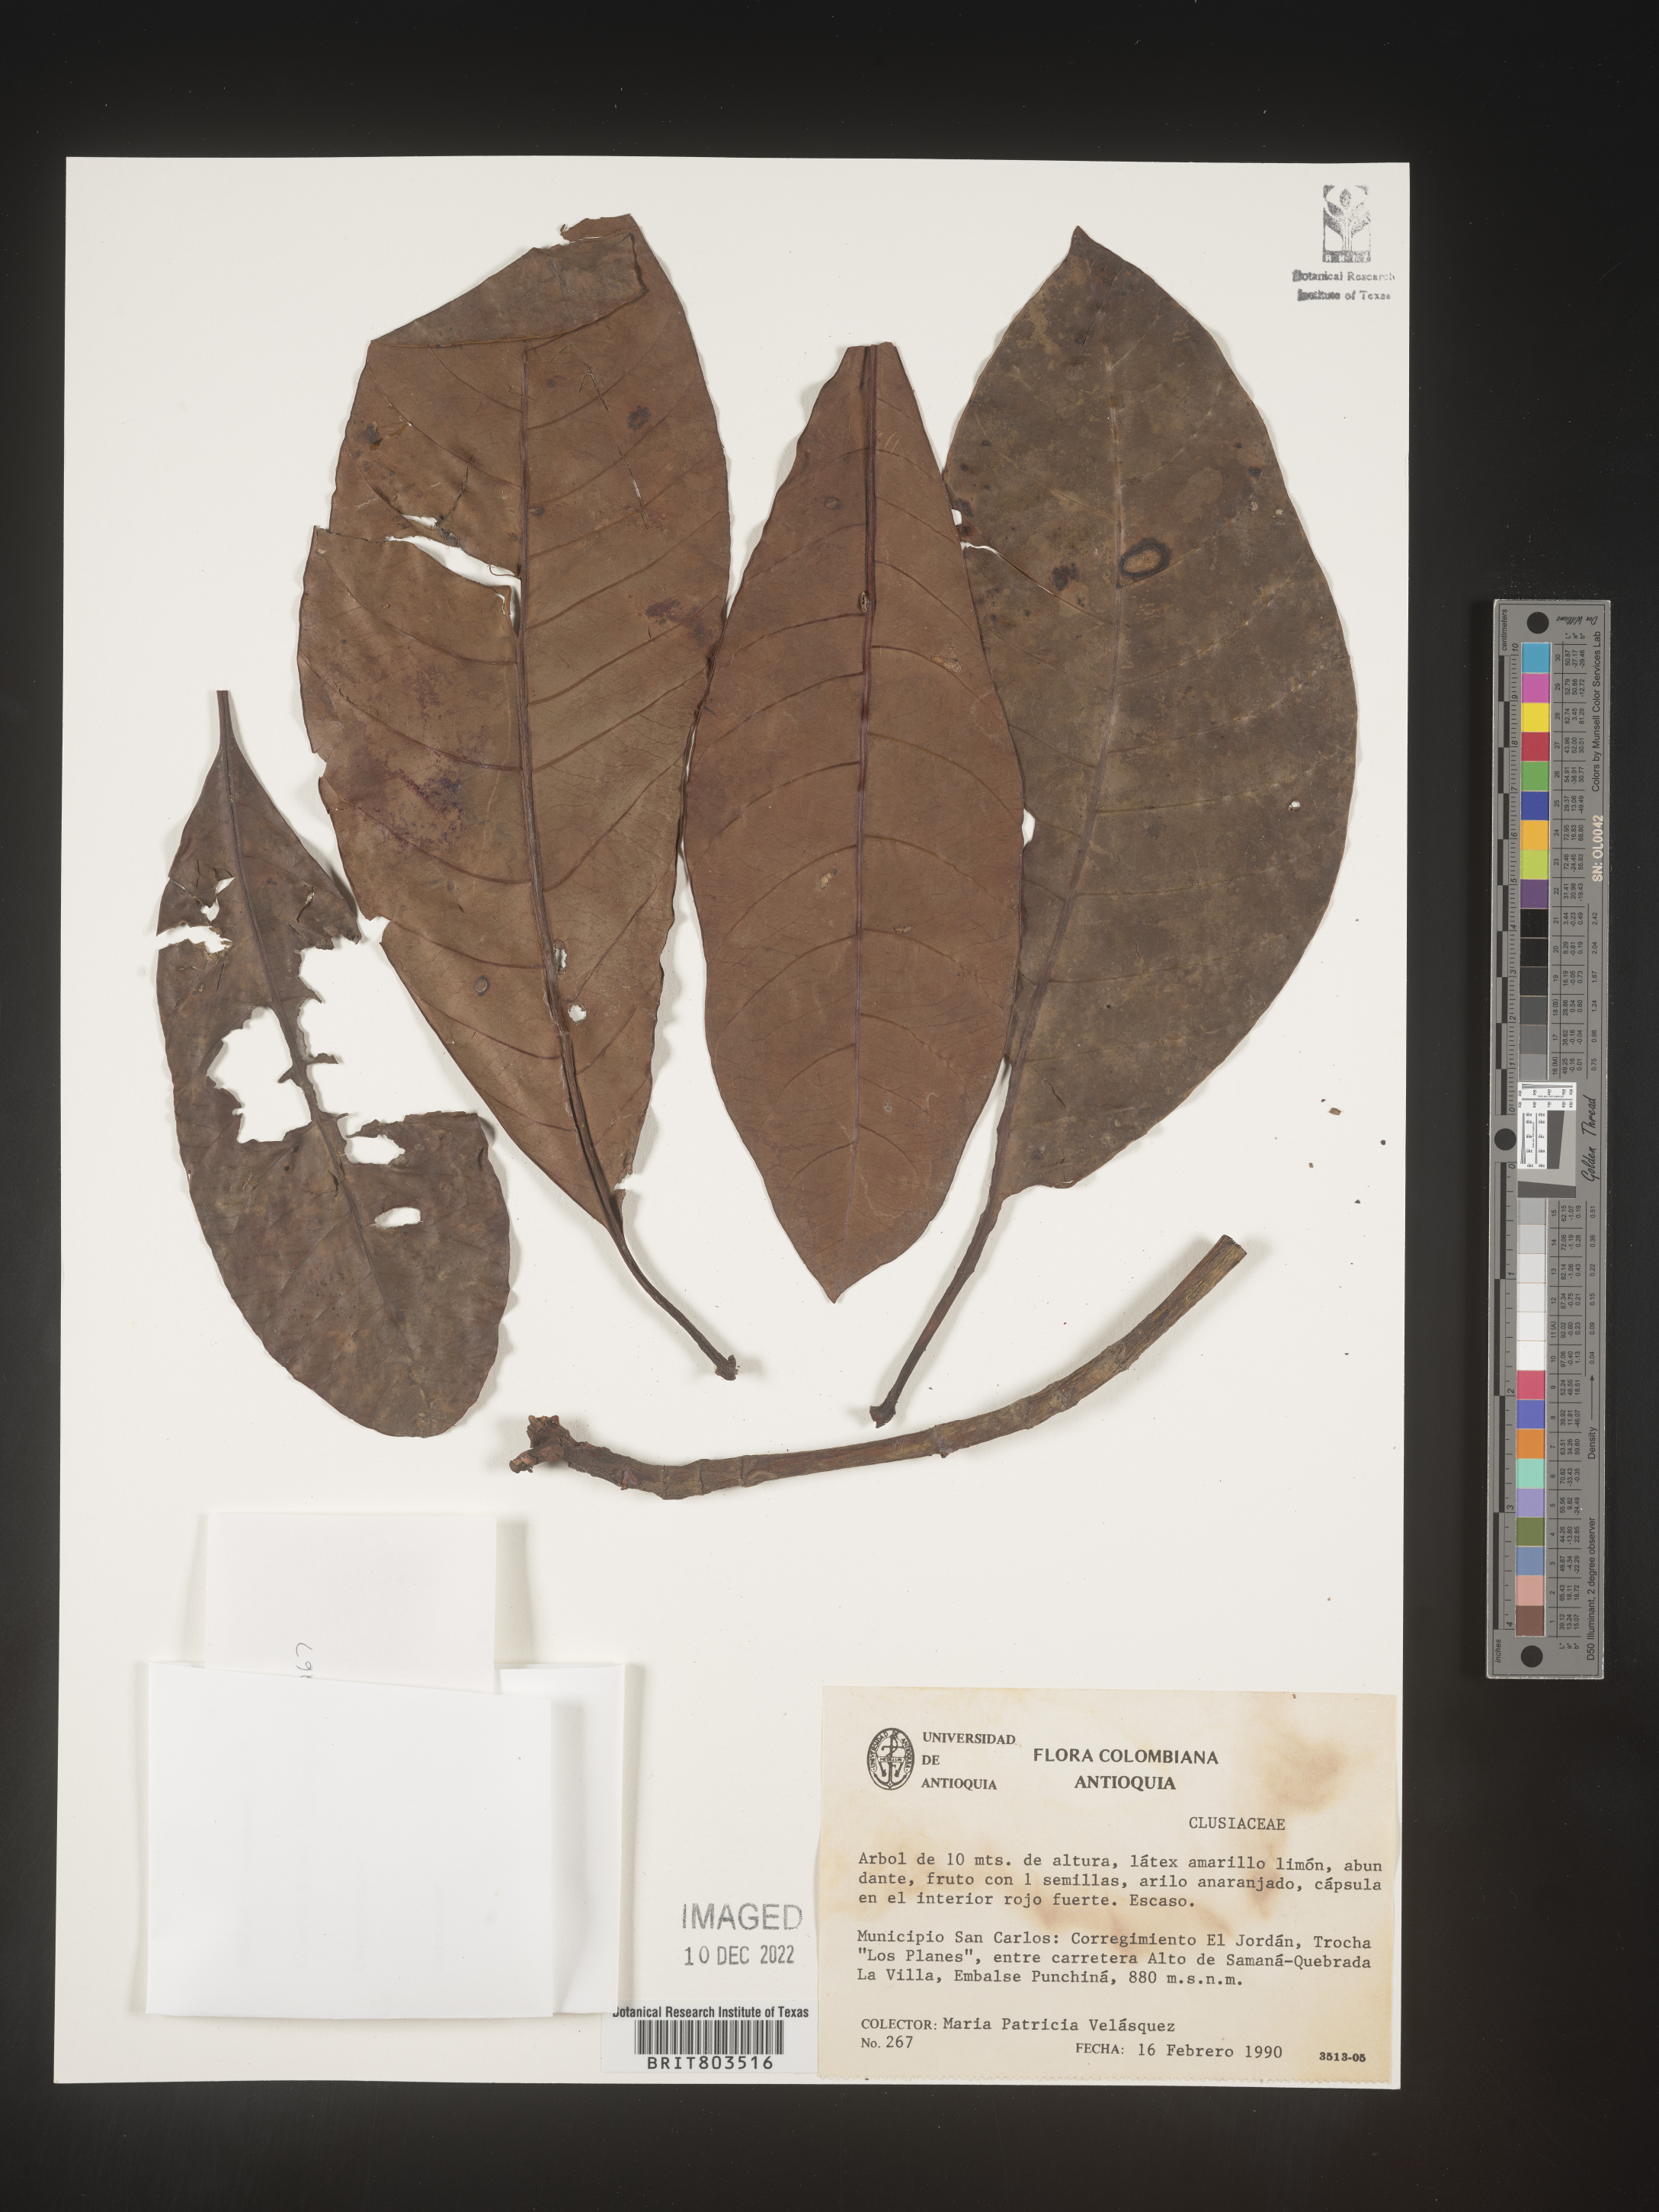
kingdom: Plantae
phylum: Tracheophyta
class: Magnoliopsida
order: Malpighiales
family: Clusiaceae
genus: Tovomita
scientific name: Tovomita
